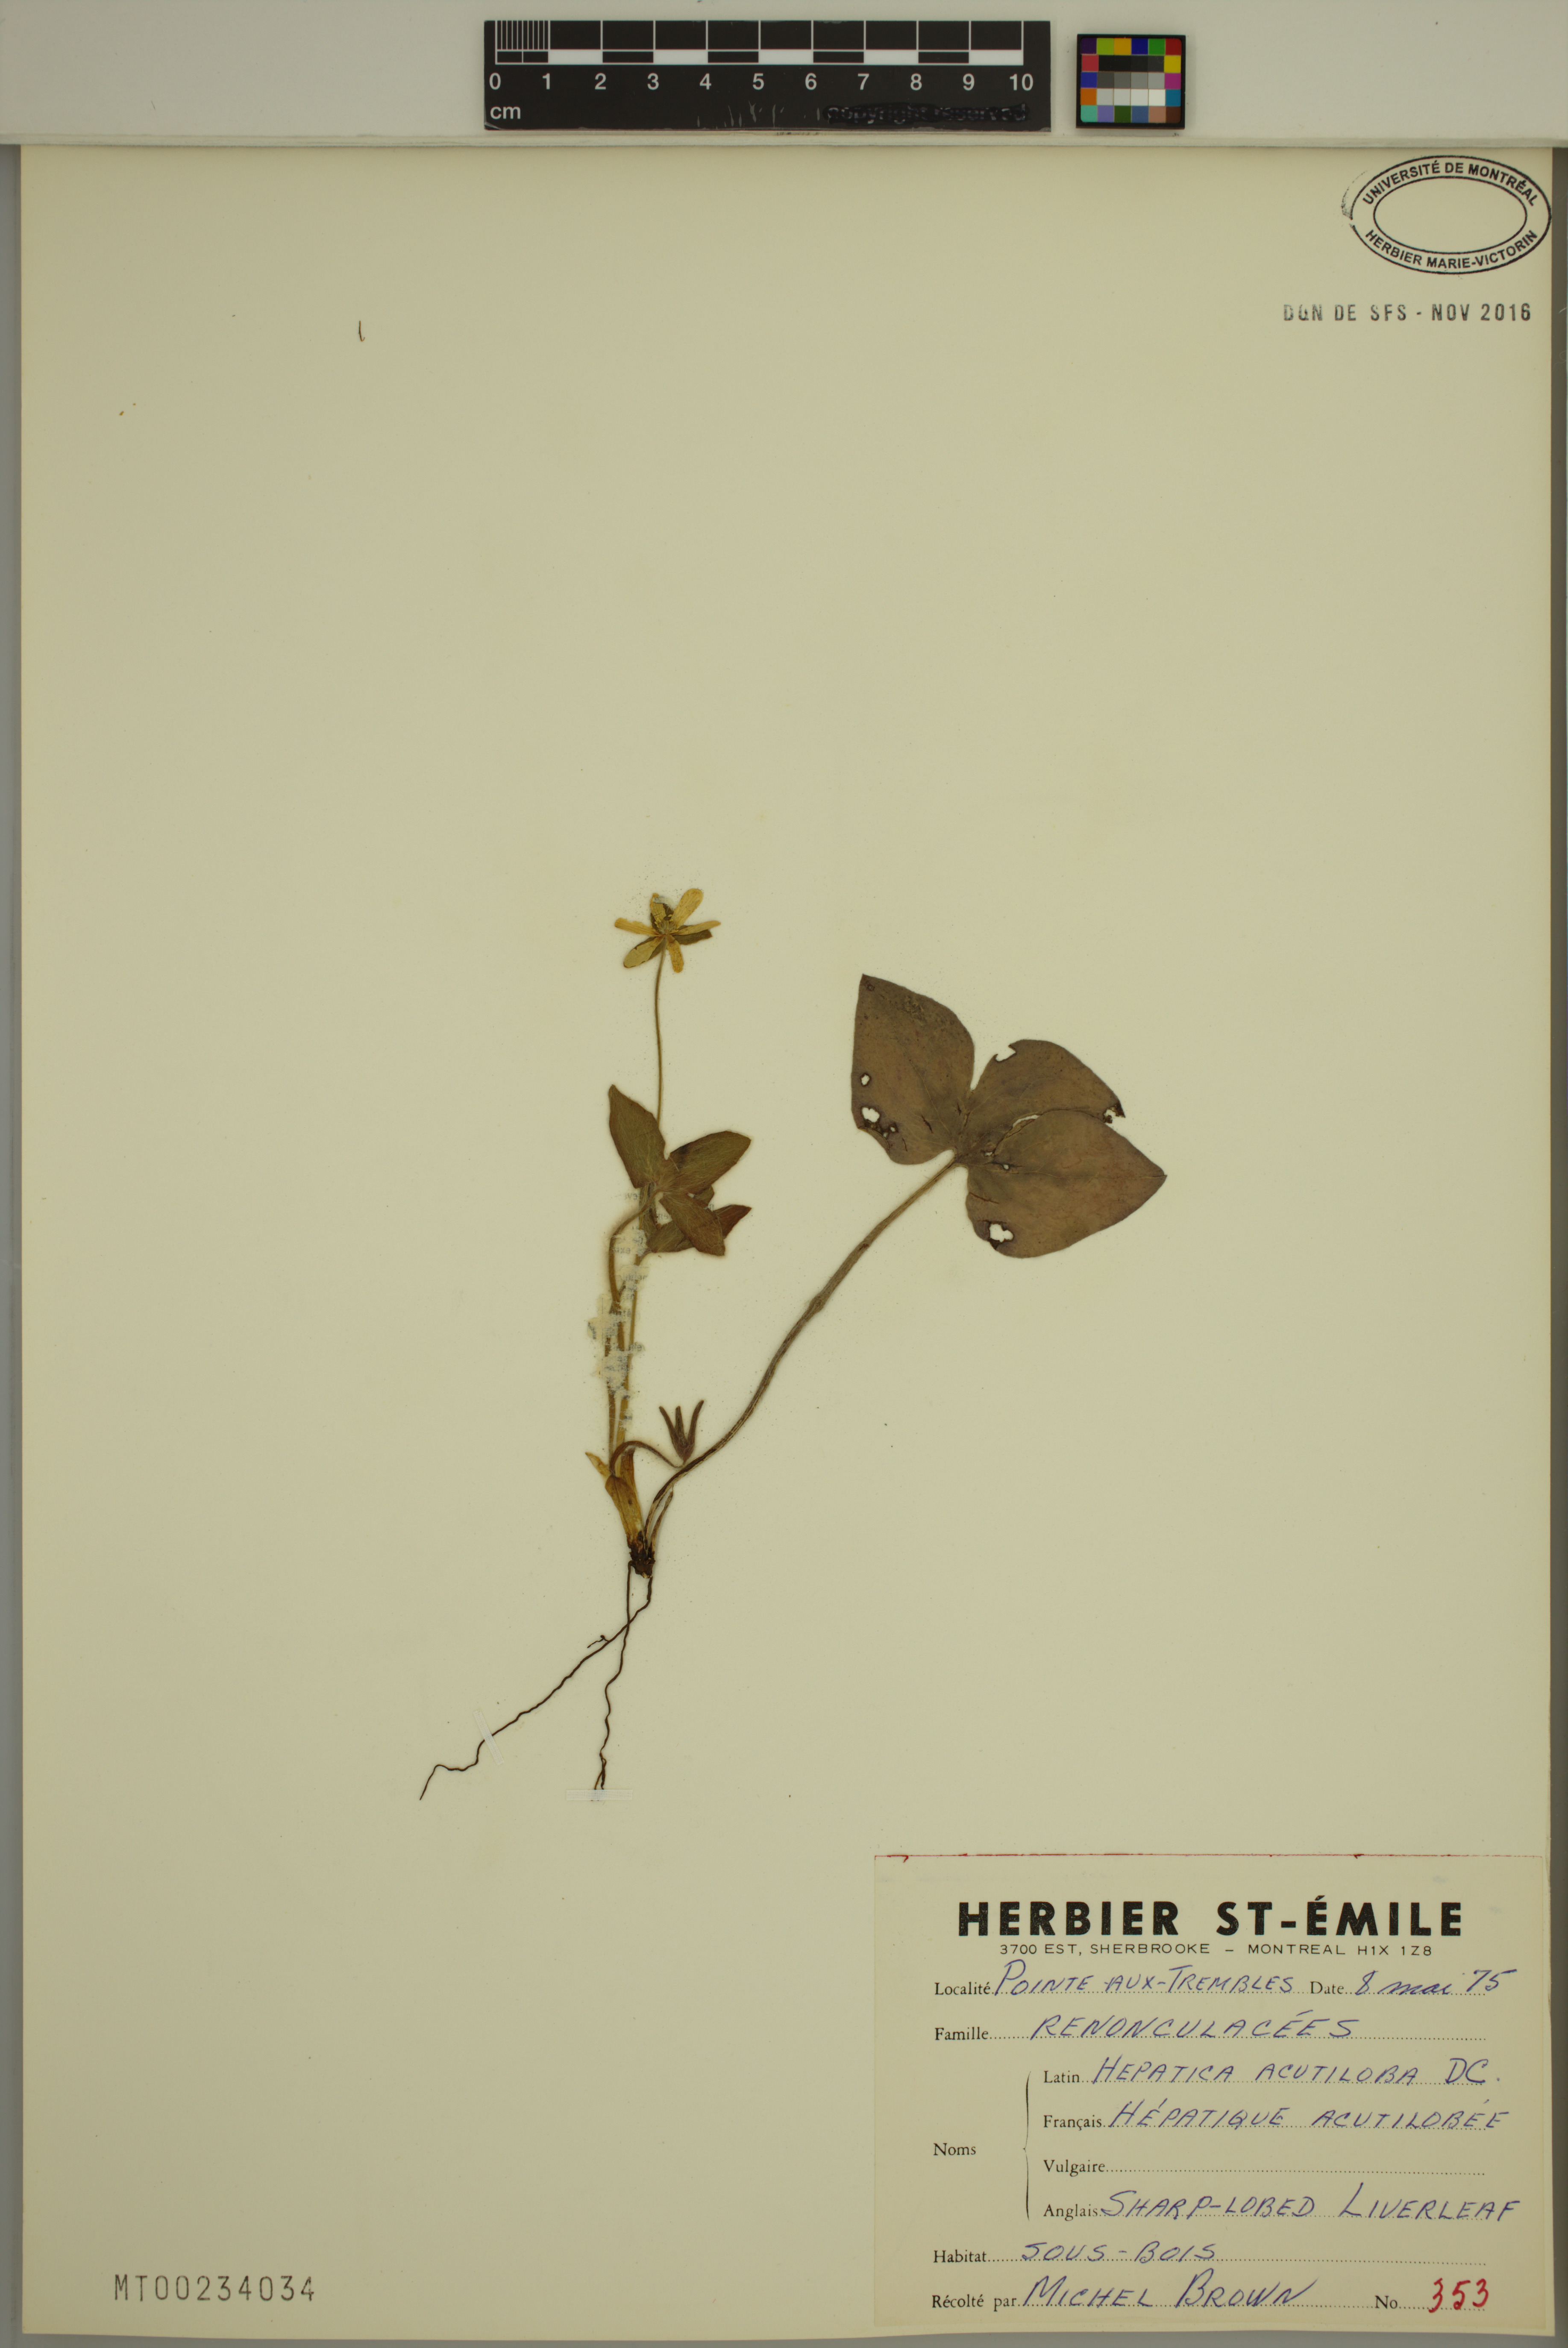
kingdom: Plantae
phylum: Tracheophyta
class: Magnoliopsida
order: Ranunculales
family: Ranunculaceae
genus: Hepatica
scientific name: Hepatica acutiloba
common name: Sharp-lobed hepatica
